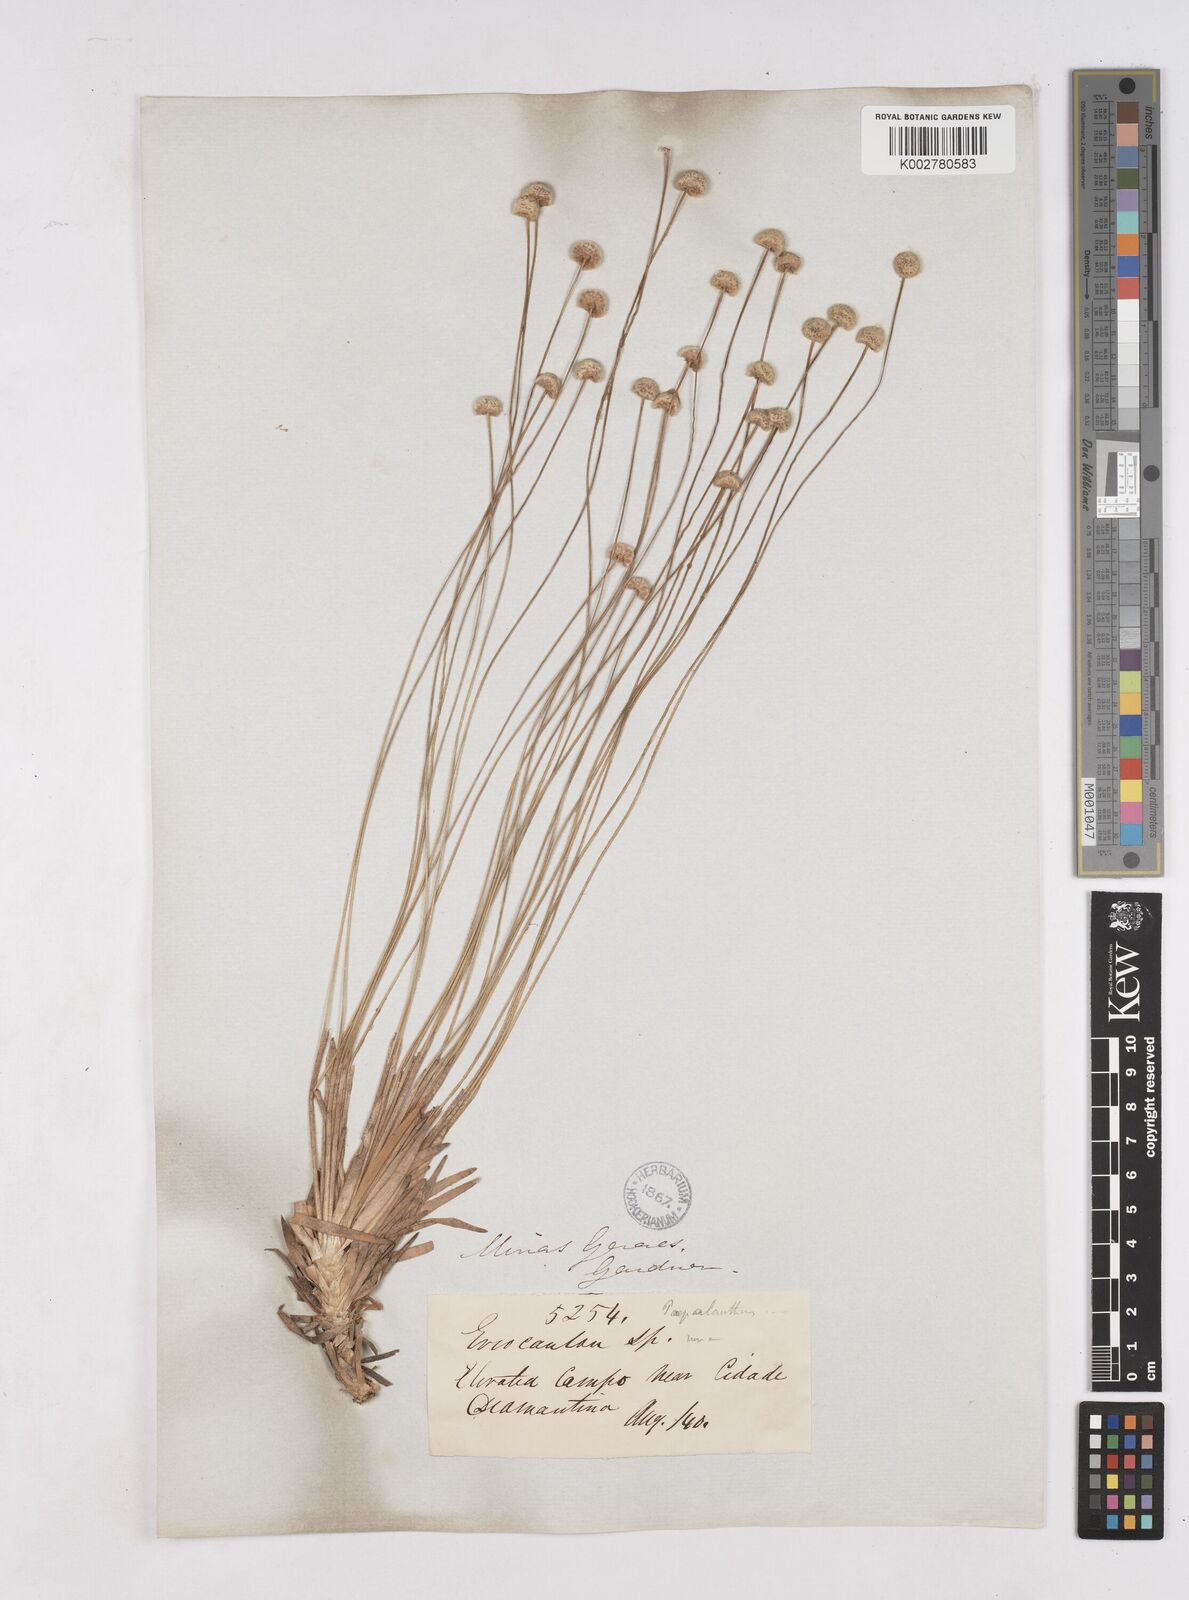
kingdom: Plantae
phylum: Tracheophyta
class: Liliopsida
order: Poales
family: Eriocaulaceae
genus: Paepalanthus
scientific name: Paepalanthus
